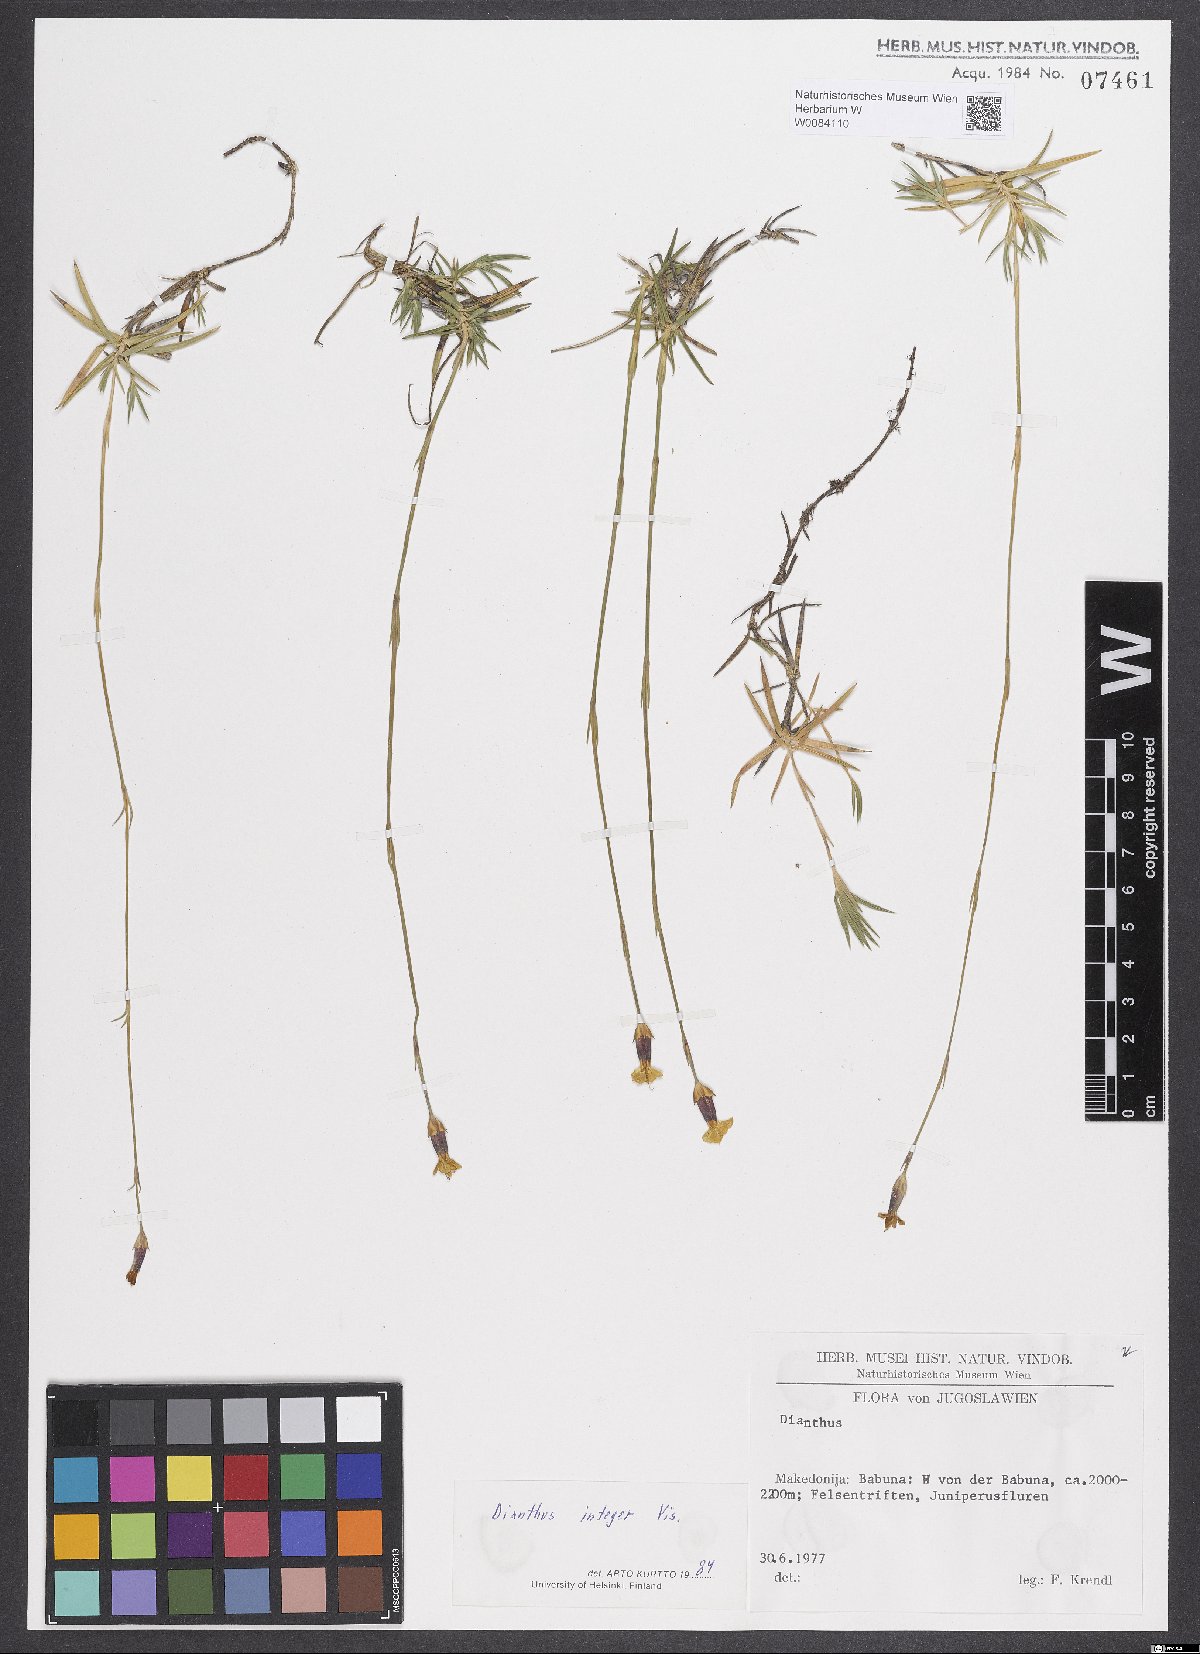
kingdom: Plantae
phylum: Tracheophyta
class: Magnoliopsida
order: Caryophyllales
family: Caryophyllaceae
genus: Dianthus
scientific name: Dianthus integer
